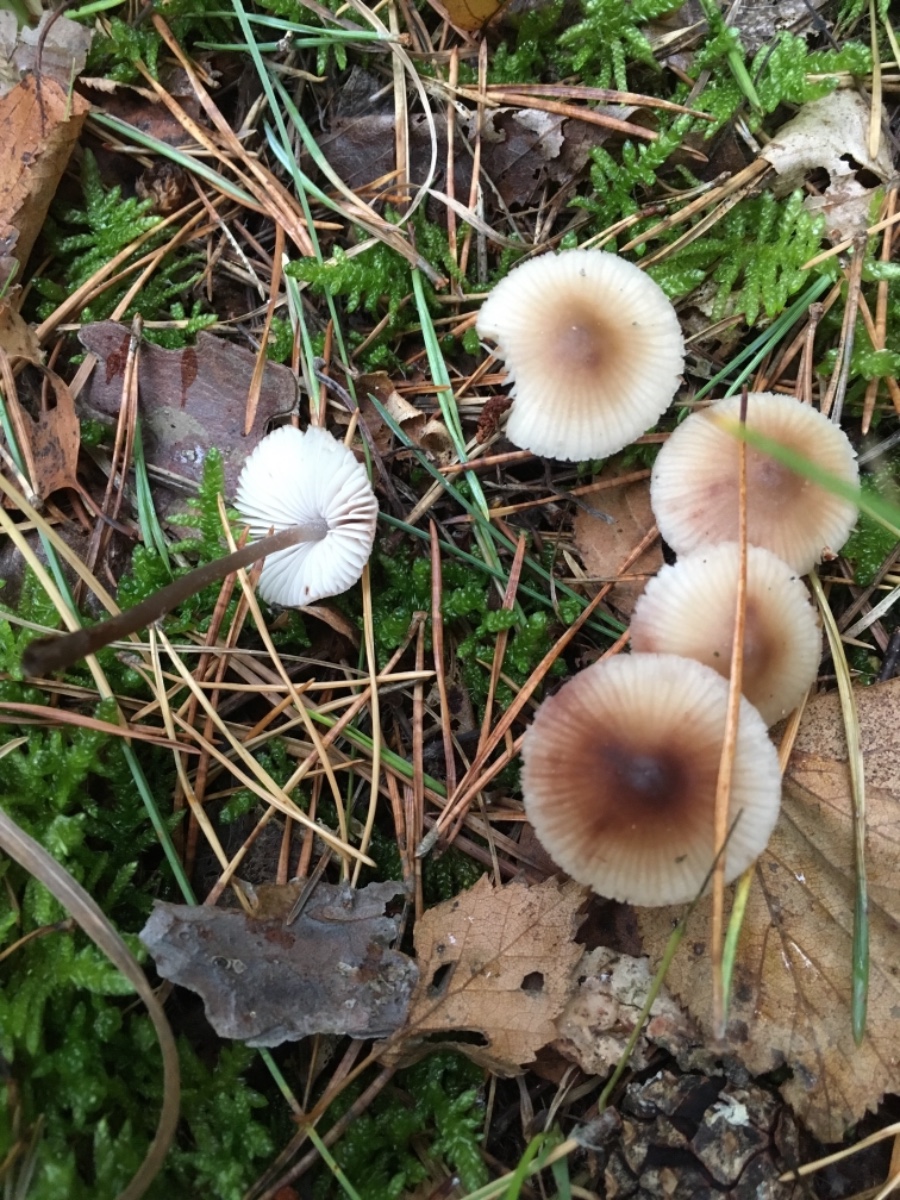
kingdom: Fungi
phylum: Basidiomycota
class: Agaricomycetes
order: Agaricales
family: Mycenaceae
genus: Mycena
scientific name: Mycena zephirus
